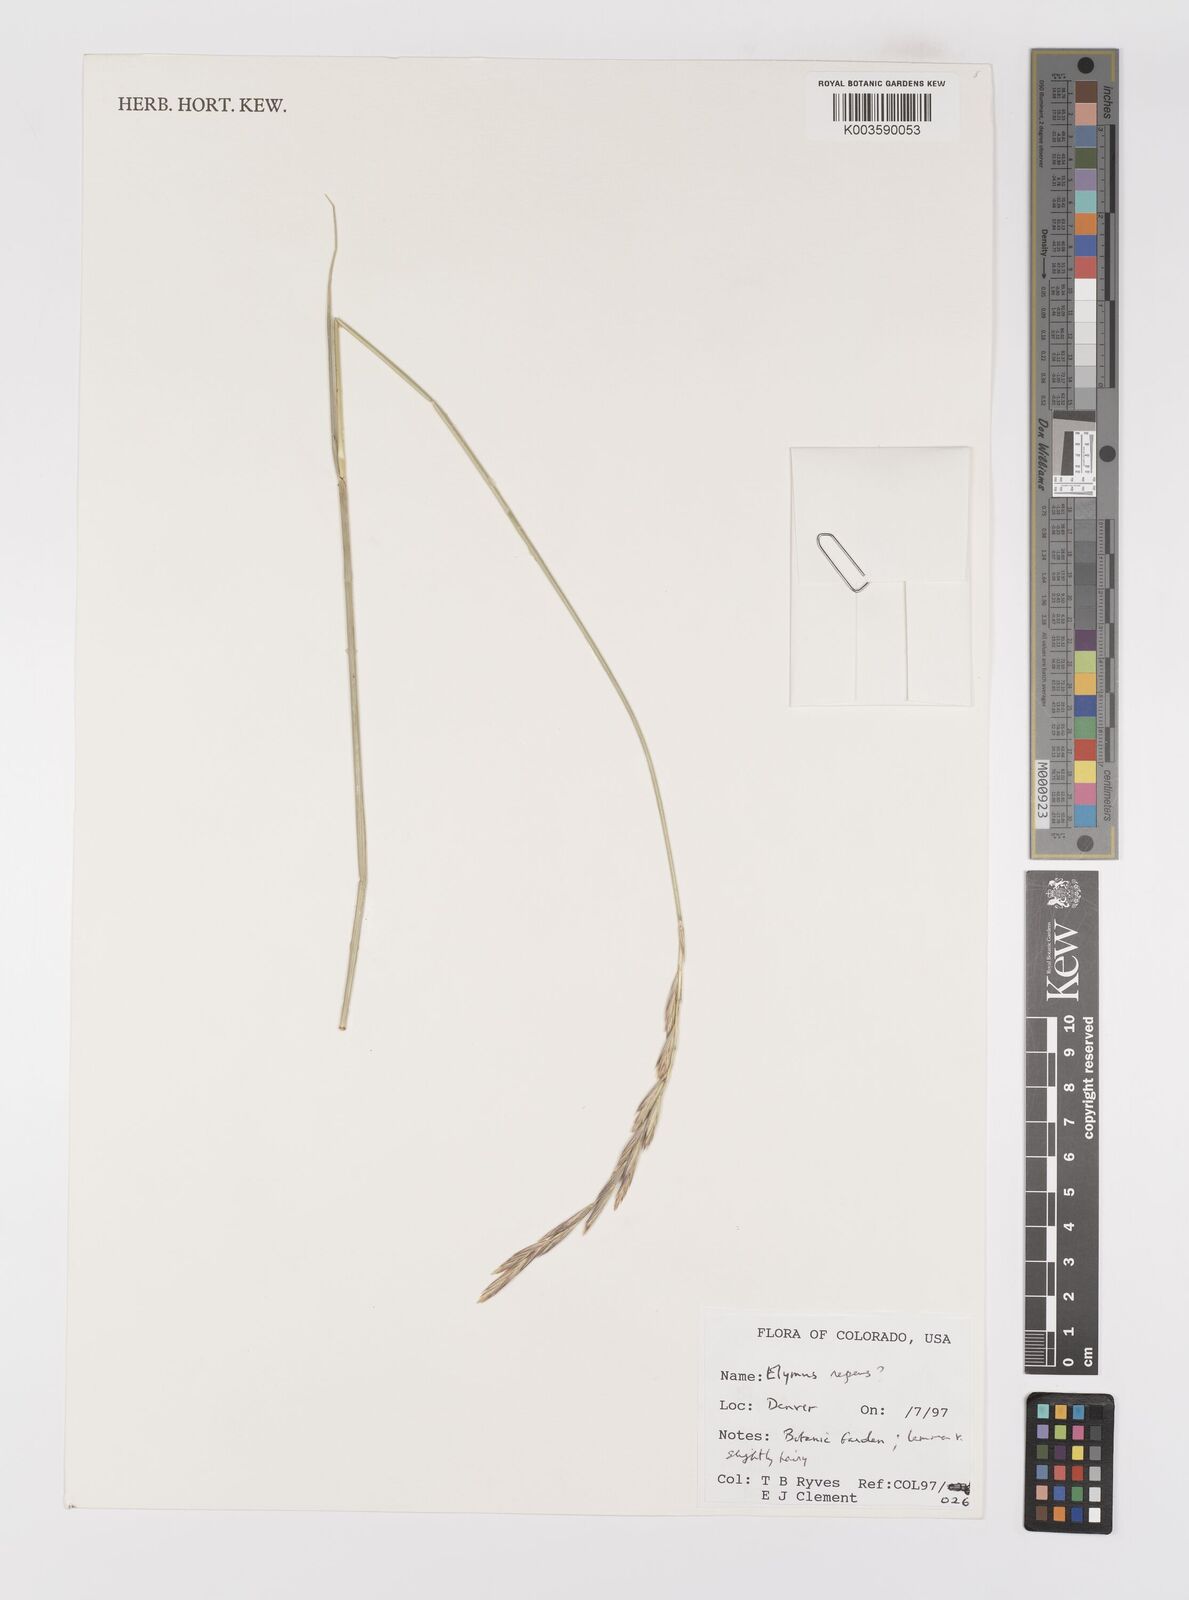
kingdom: Plantae
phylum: Tracheophyta
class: Liliopsida
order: Poales
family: Poaceae
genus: Elymus
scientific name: Elymus repens
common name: Quackgrass
